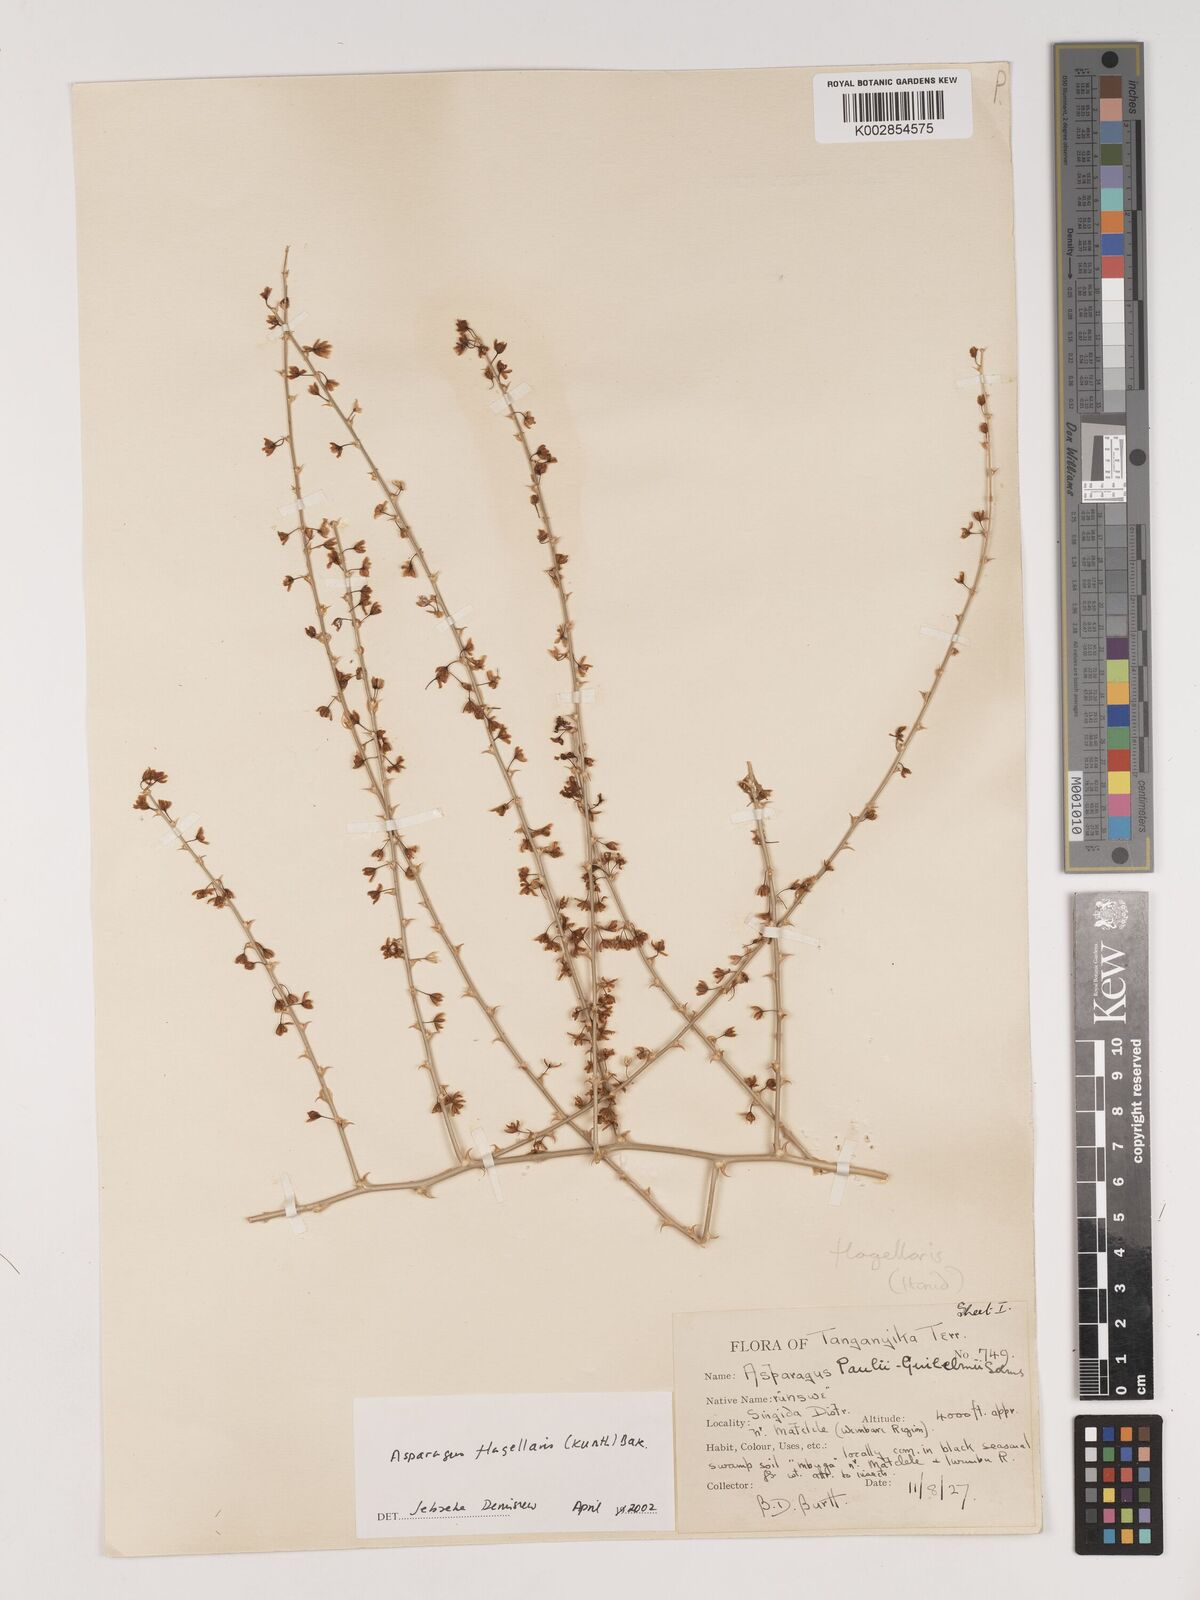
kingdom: Plantae
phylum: Tracheophyta
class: Liliopsida
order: Asparagales
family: Asparagaceae
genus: Asparagus
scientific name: Asparagus flagellaris
